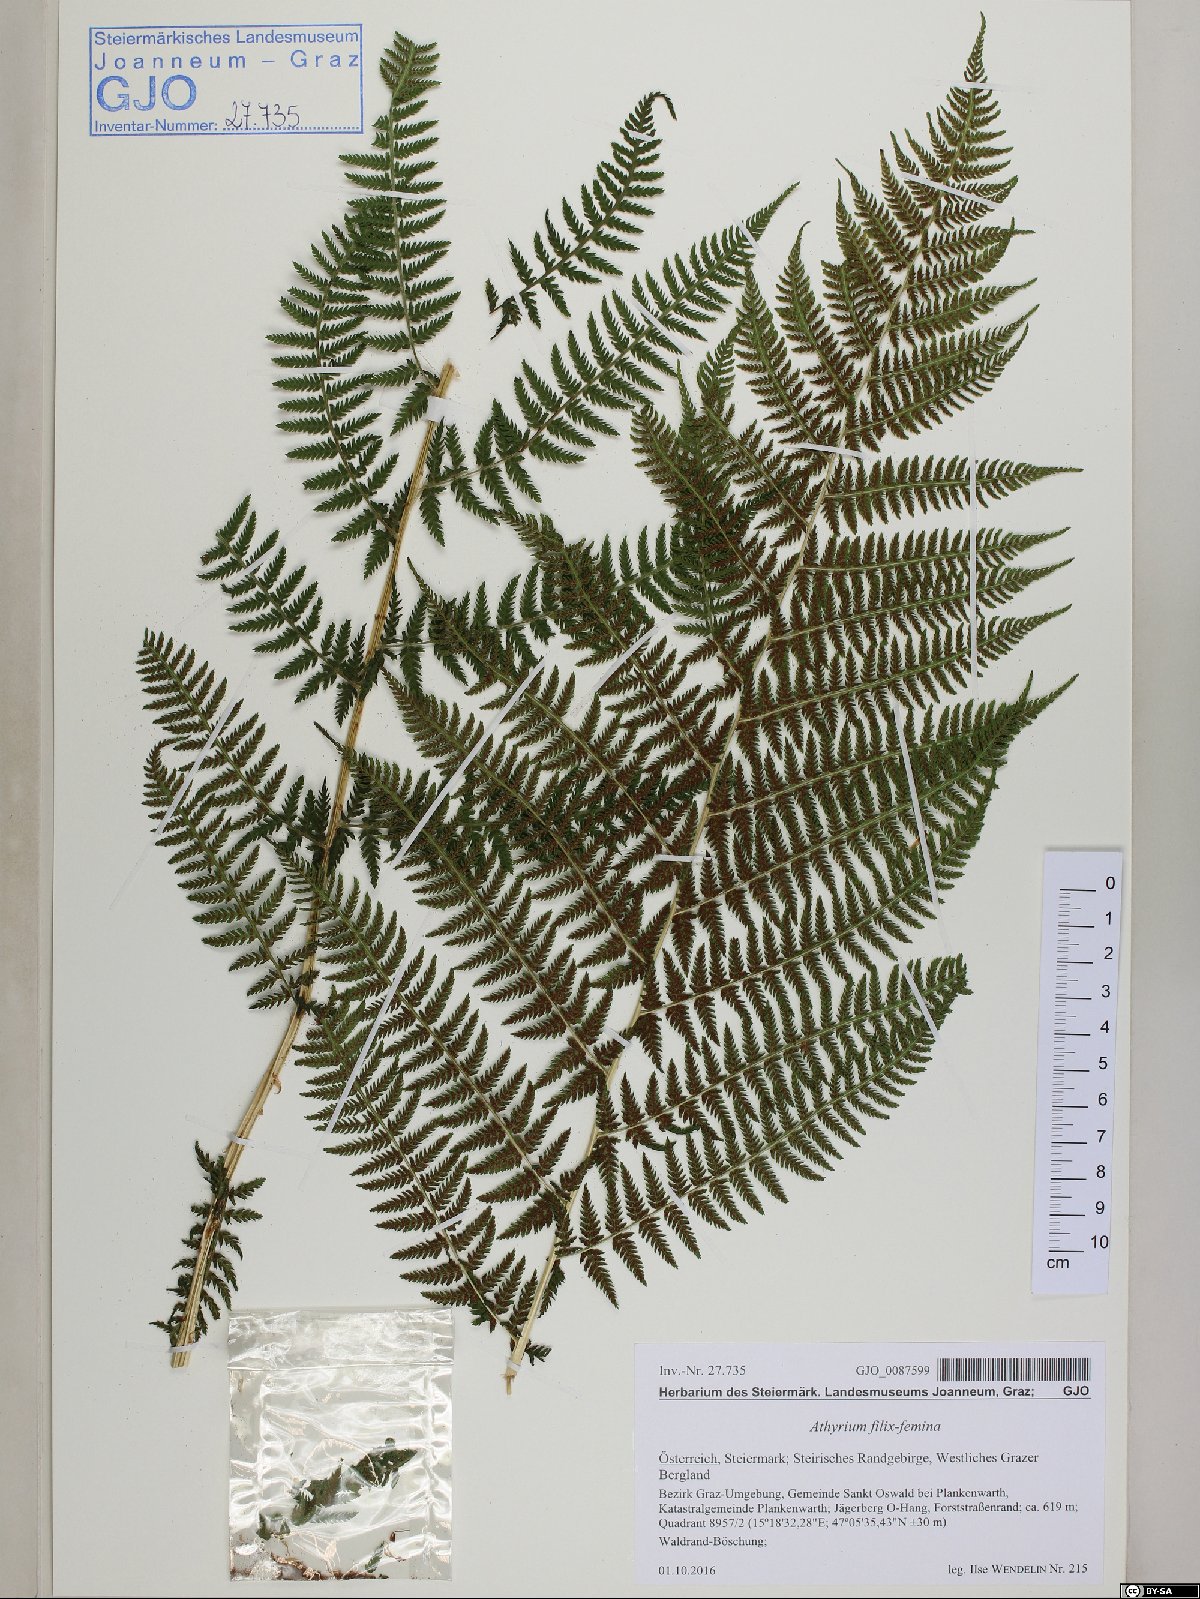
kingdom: Plantae
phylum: Tracheophyta
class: Polypodiopsida
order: Polypodiales
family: Athyriaceae
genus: Athyrium
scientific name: Athyrium filix-femina
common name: Lady fern
